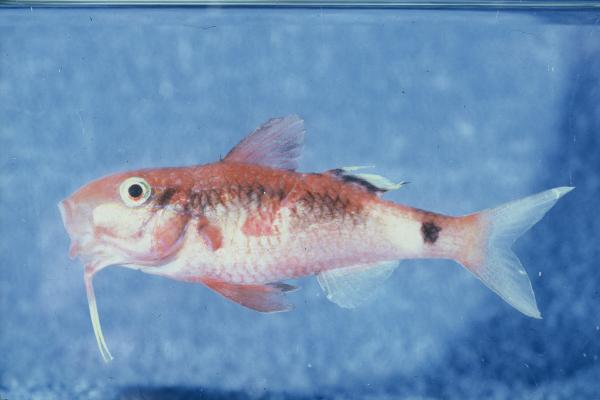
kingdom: Animalia
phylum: Chordata
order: Perciformes
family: Mullidae
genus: Parupeneus
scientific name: Parupeneus macronemus
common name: Long-barbel goatfish
